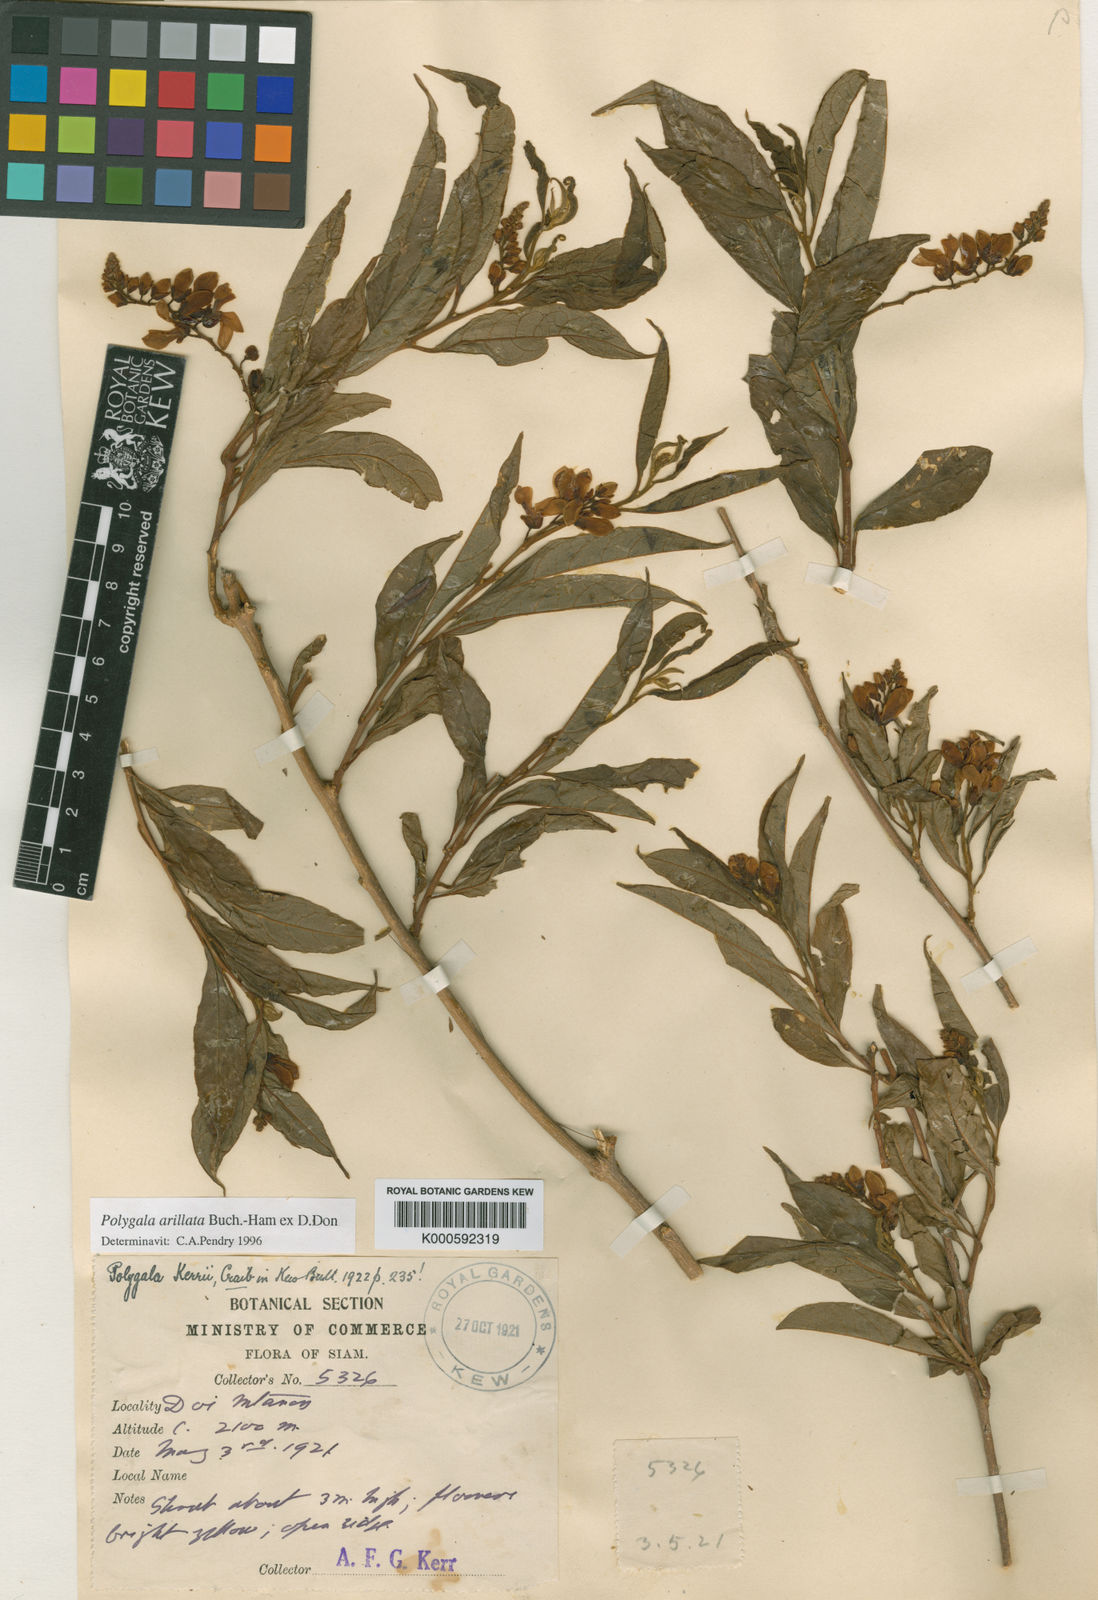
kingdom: Plantae
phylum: Tracheophyta
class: Magnoliopsida
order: Fabales
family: Polygalaceae
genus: Polygala
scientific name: Polygala arillata
